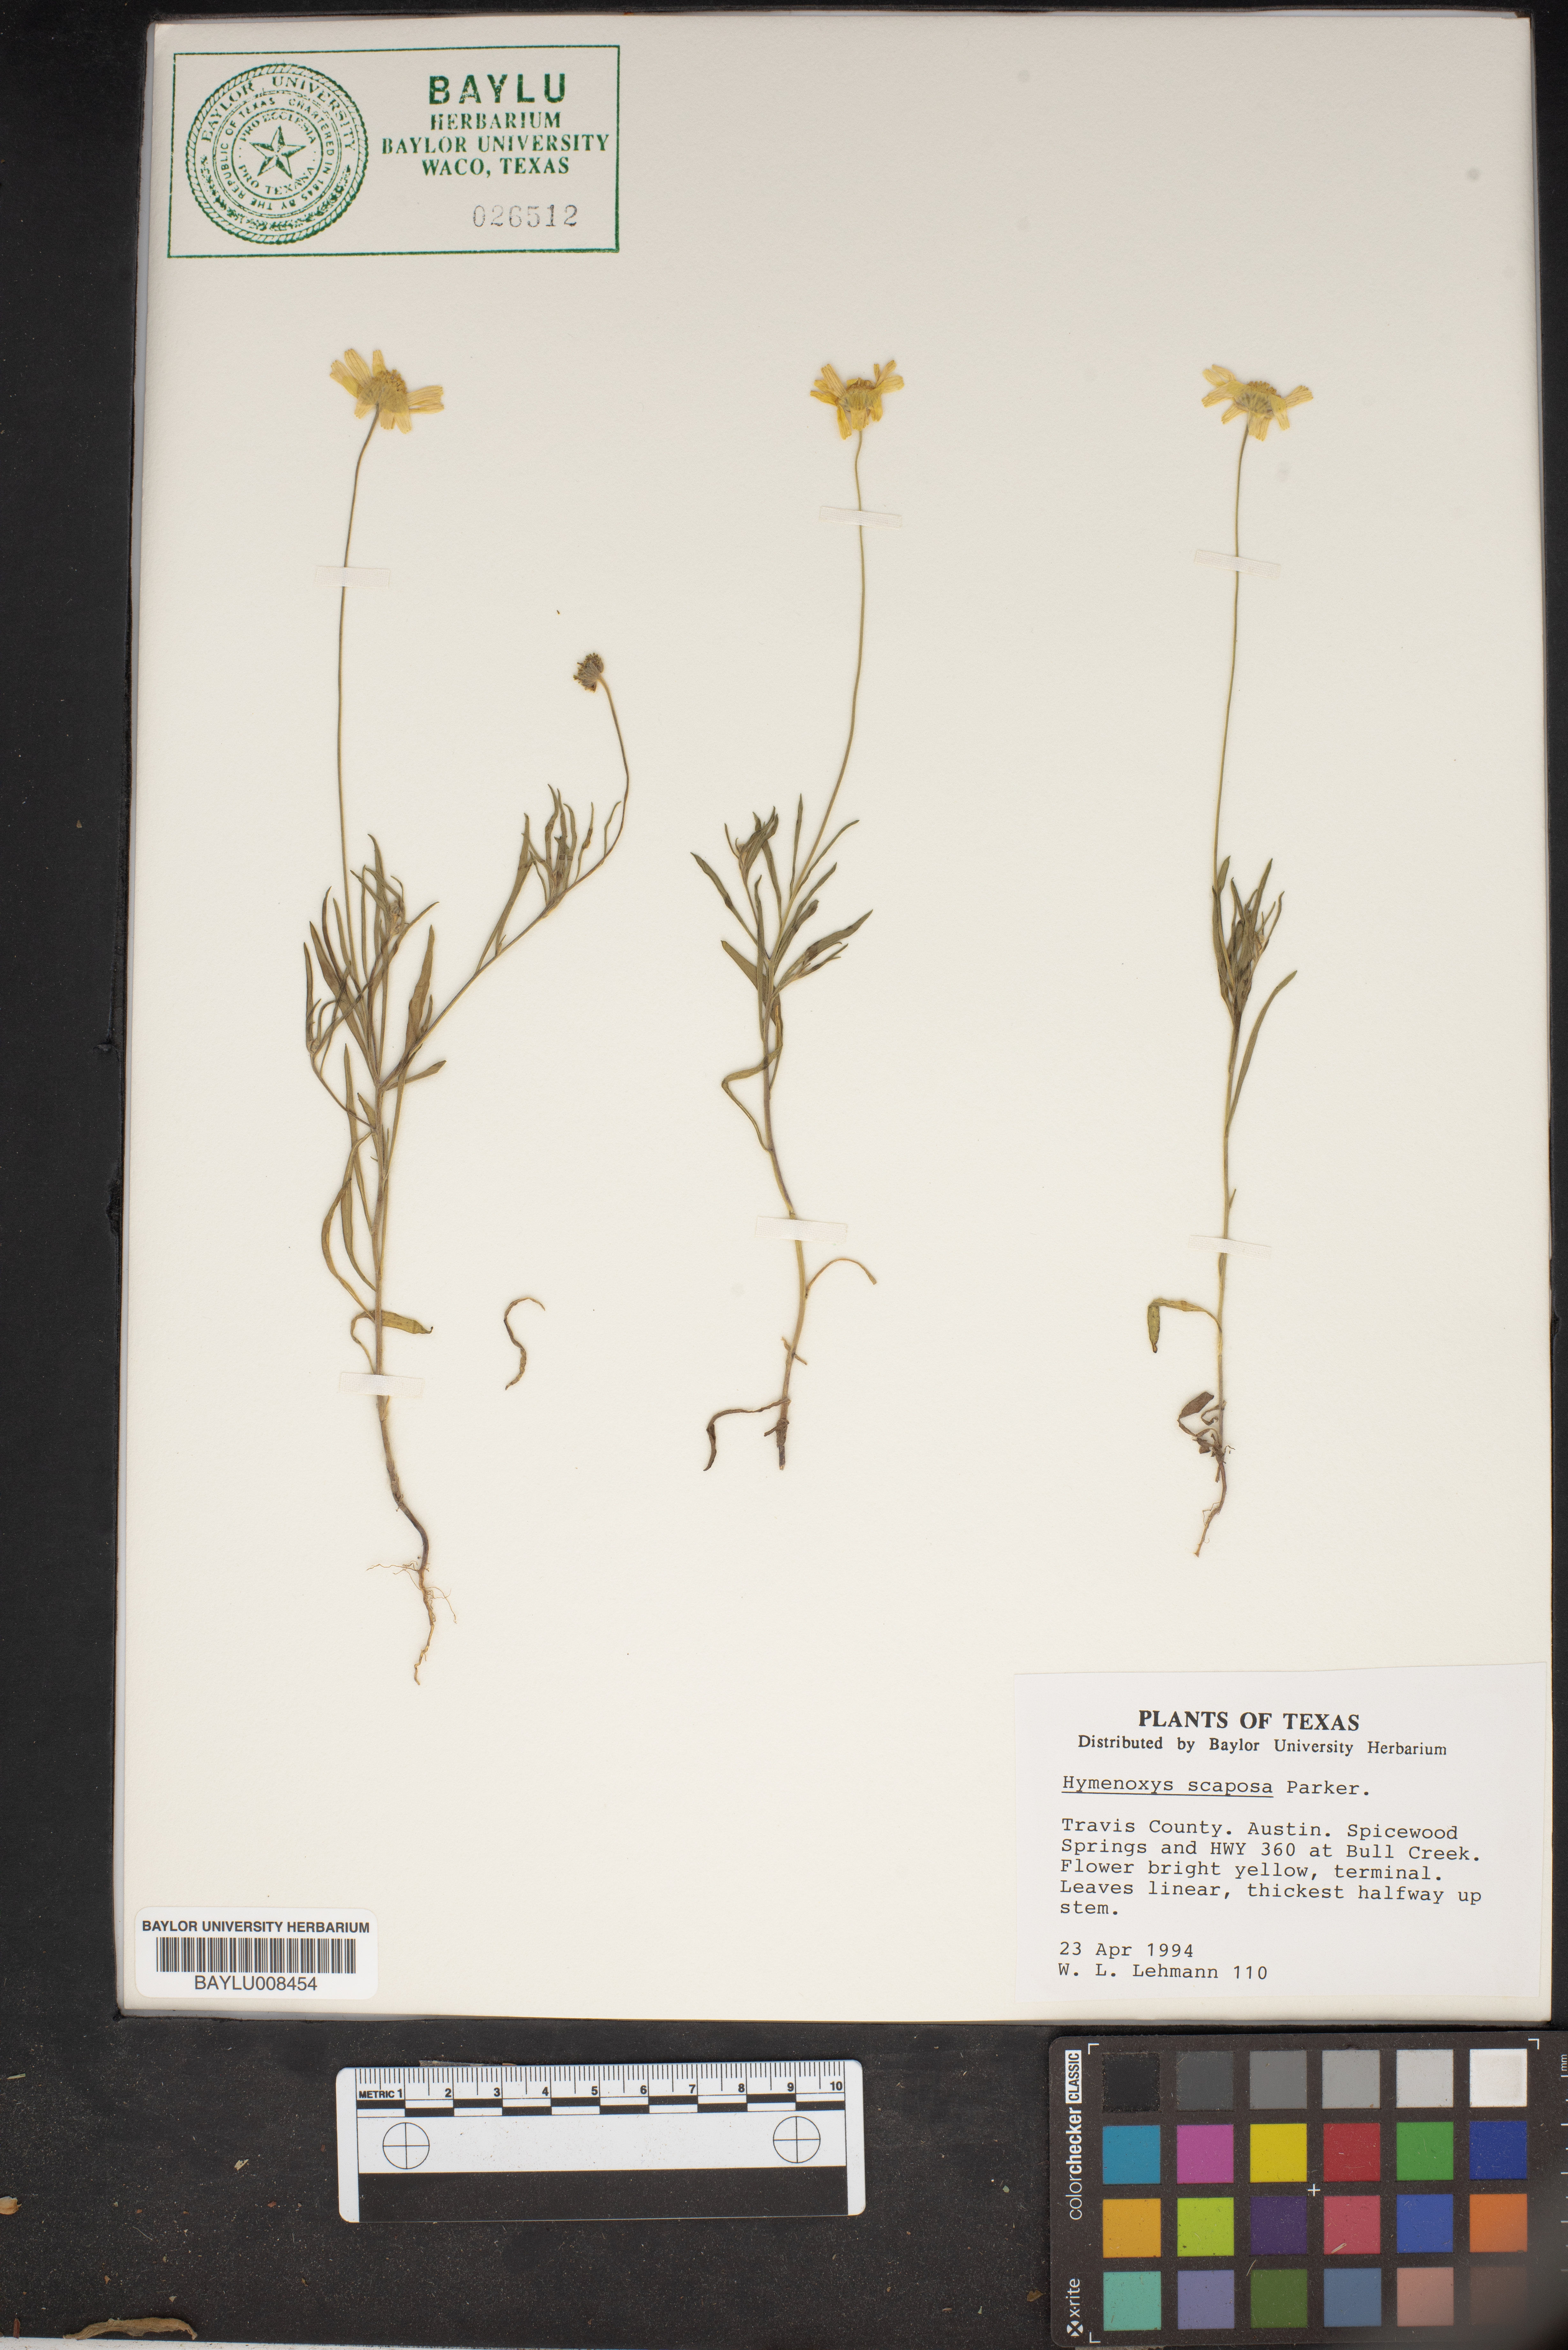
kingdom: Plantae
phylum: Tracheophyta
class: Magnoliopsida
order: Asterales
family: Asteraceae
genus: Tetraneuris
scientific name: Tetraneuris scaposa
